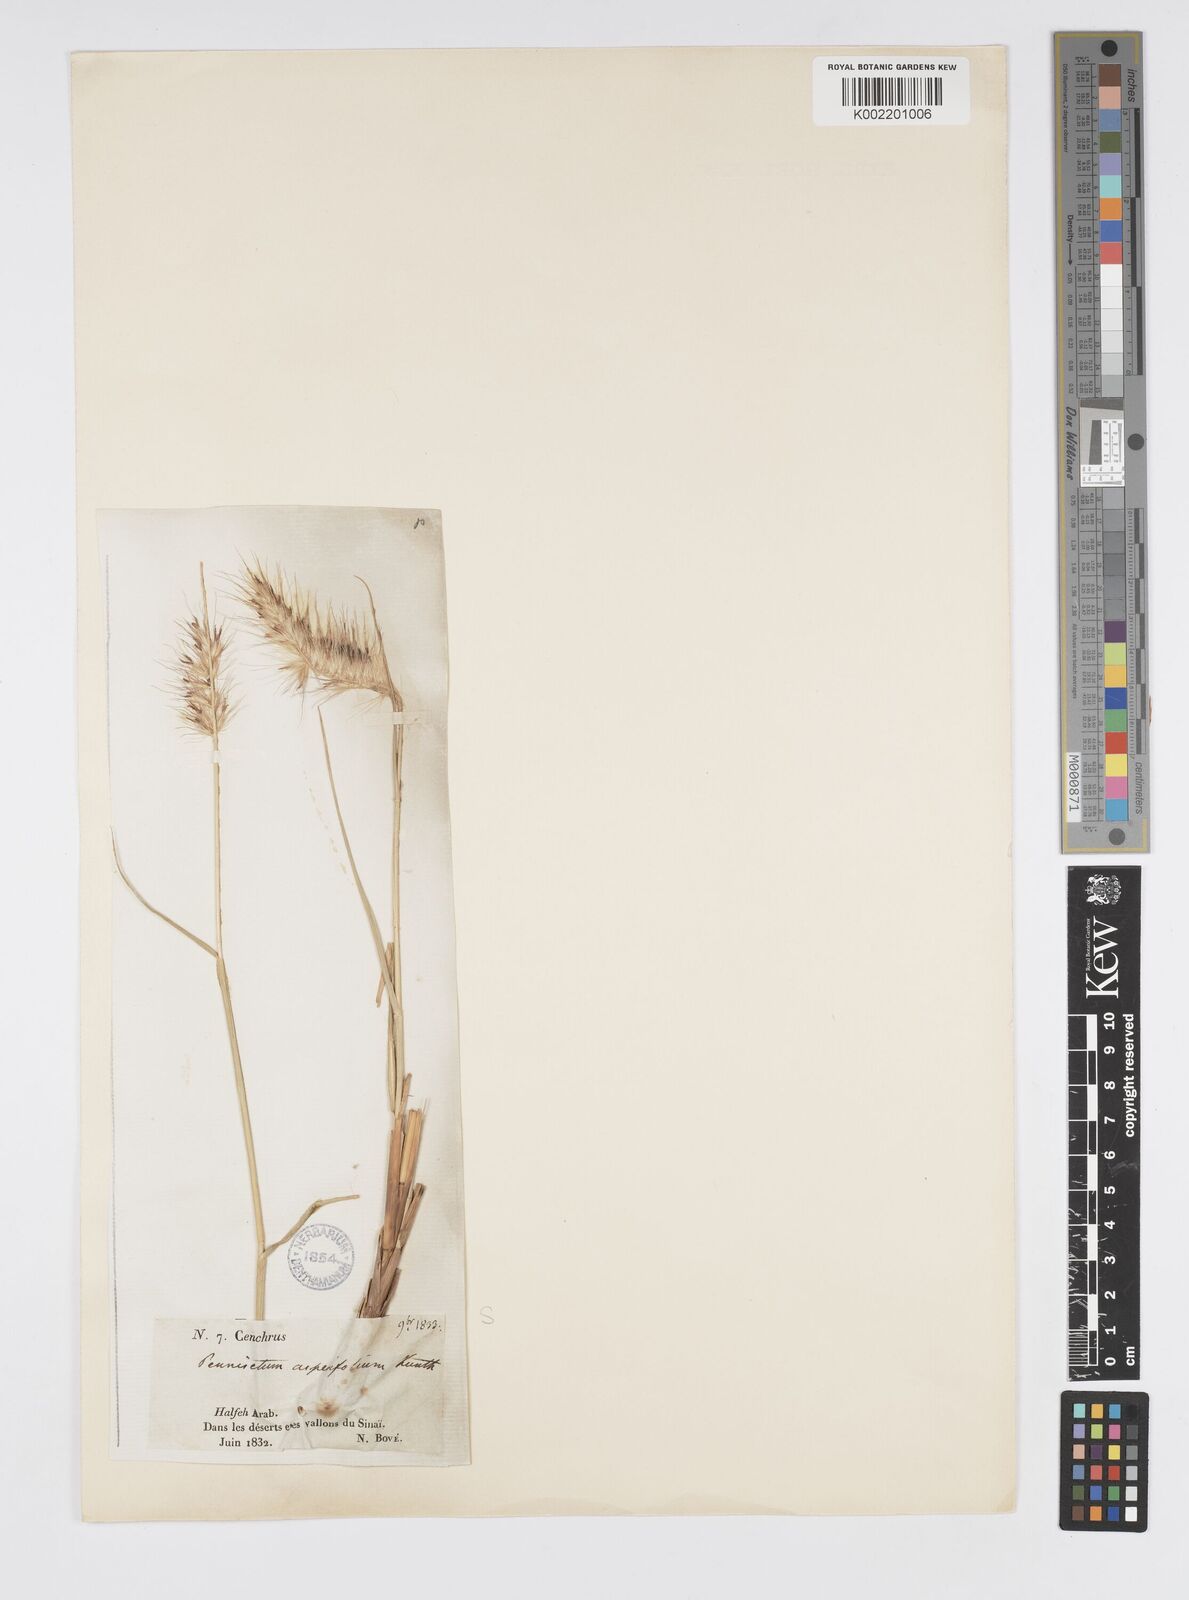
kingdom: Plantae
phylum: Tracheophyta
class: Liliopsida
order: Poales
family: Poaceae
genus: Cenchrus
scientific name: Cenchrus setaceus
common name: Crimson fountaingrass
